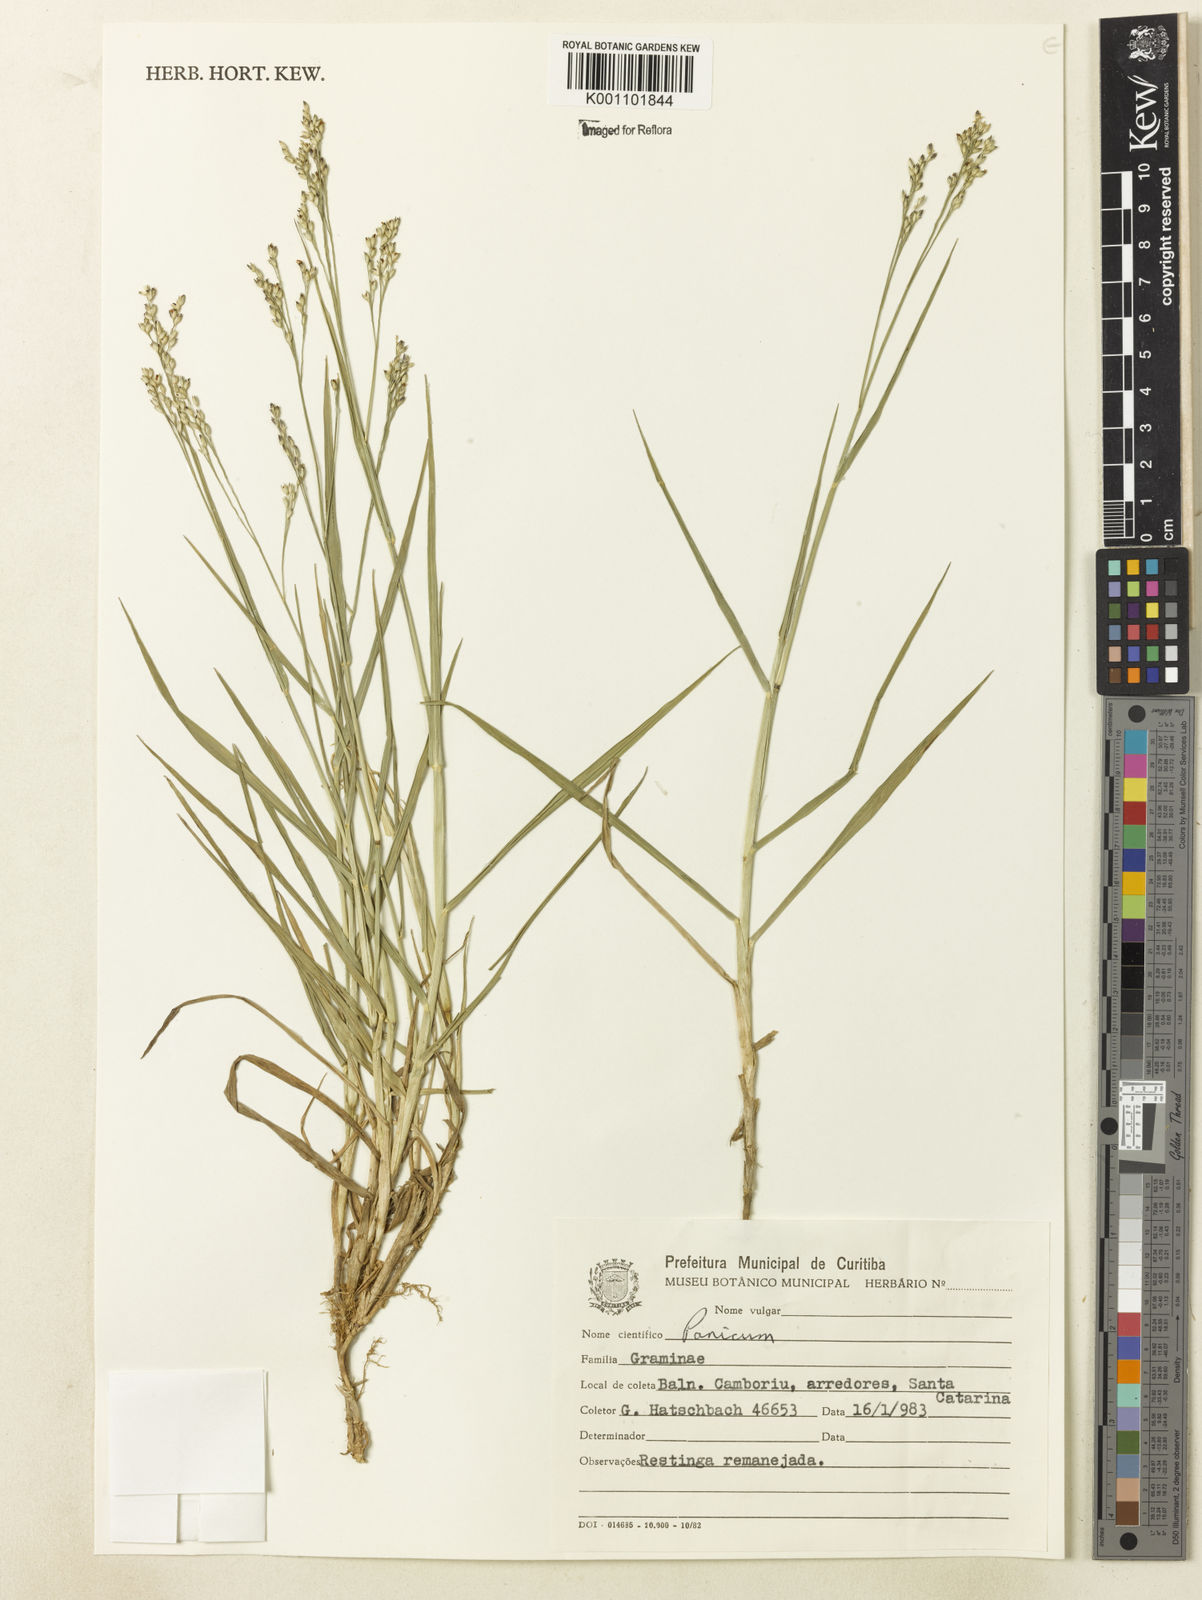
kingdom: Plantae
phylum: Tracheophyta
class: Liliopsida
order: Poales
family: Poaceae
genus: Panicum
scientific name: Panicum gouinii
